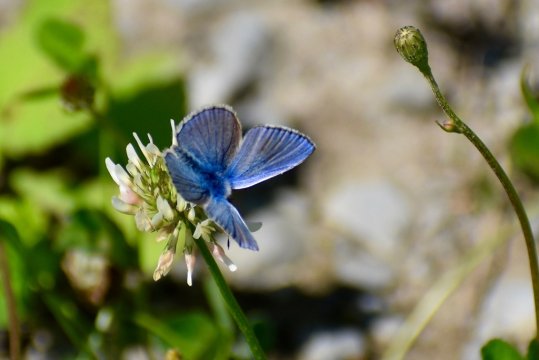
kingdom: Animalia
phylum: Arthropoda
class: Insecta
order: Lepidoptera
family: Lycaenidae
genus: Polyommatus
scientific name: Polyommatus icarus
